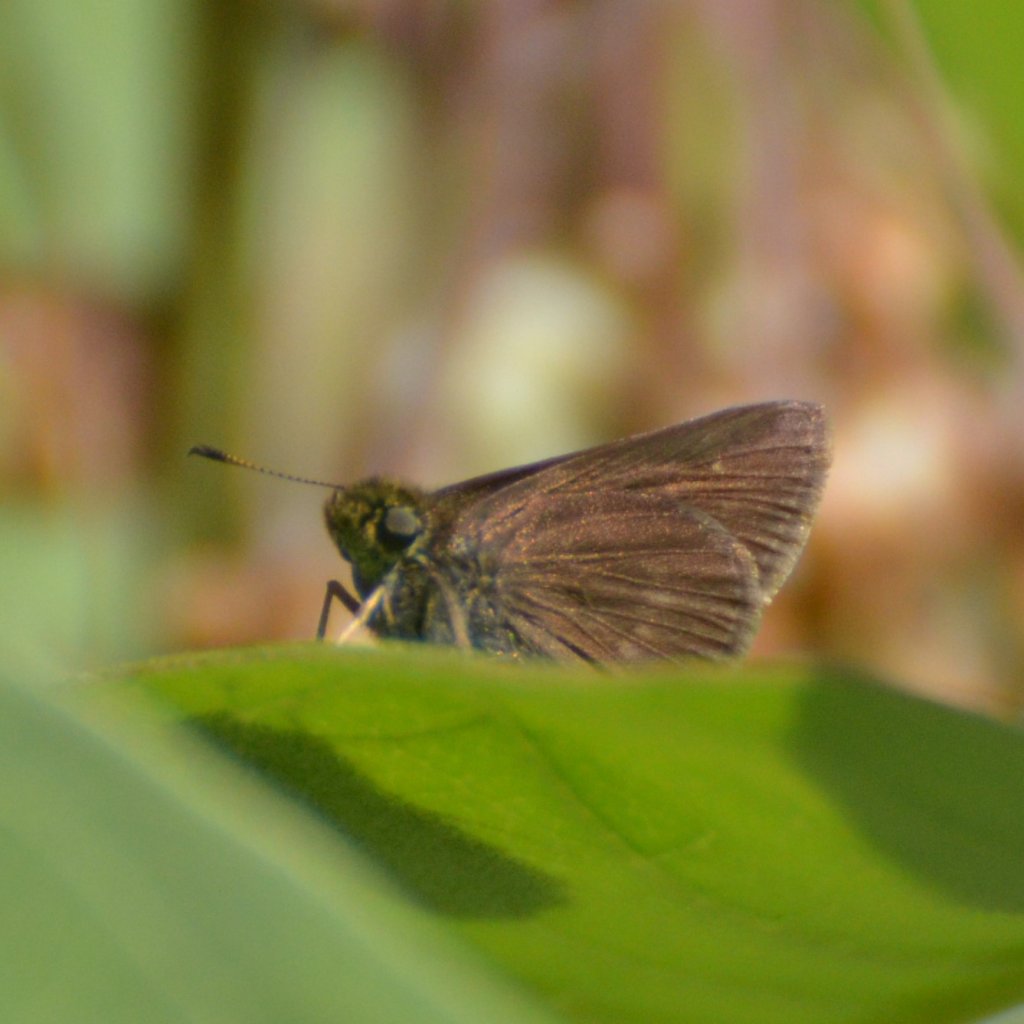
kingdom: Animalia
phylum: Arthropoda
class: Insecta
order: Lepidoptera
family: Hesperiidae
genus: Euphyes
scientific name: Euphyes vestris
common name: Dun Skipper
